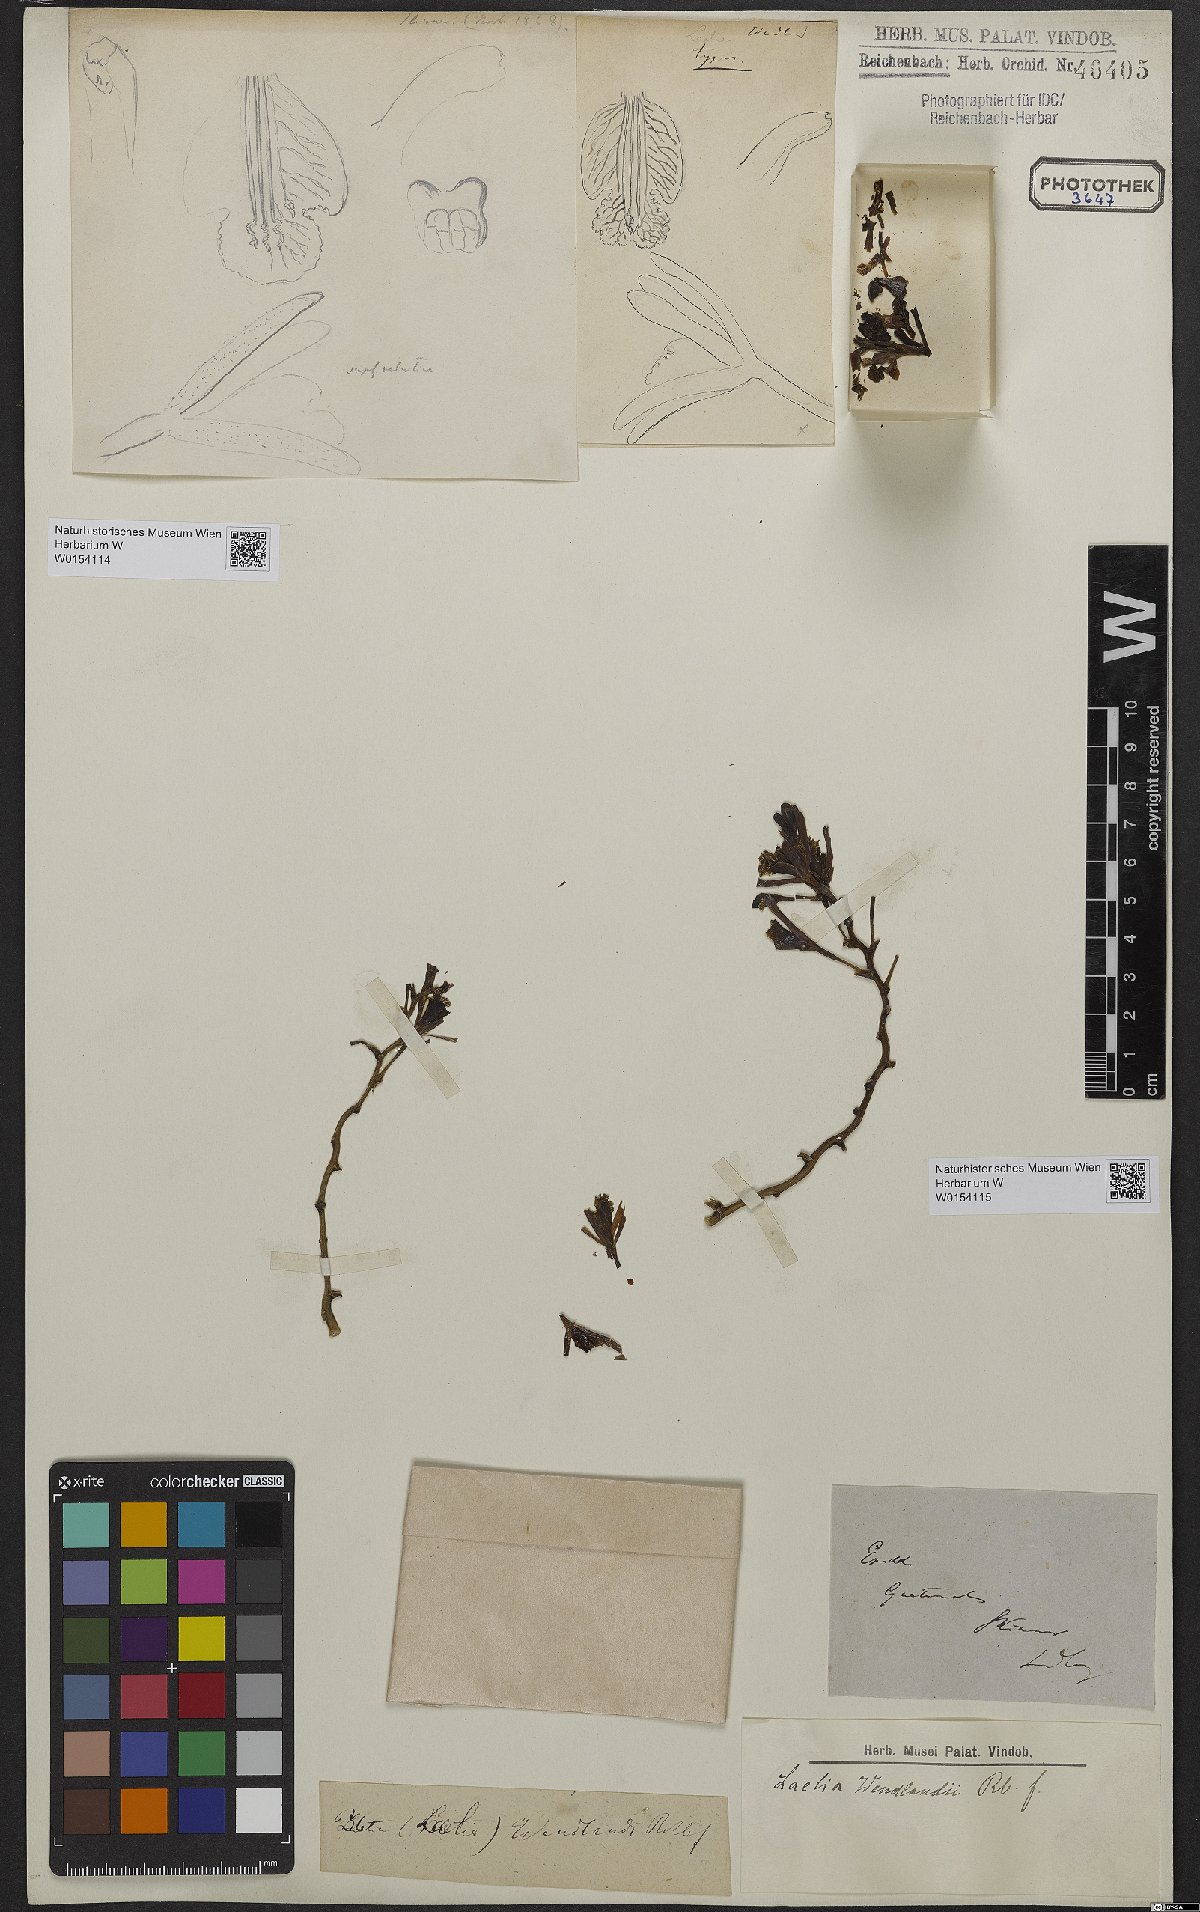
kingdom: Plantae
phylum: Tracheophyta
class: Liliopsida
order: Asparagales
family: Orchidaceae
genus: Myrmecophila
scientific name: Myrmecophila wendlandii
